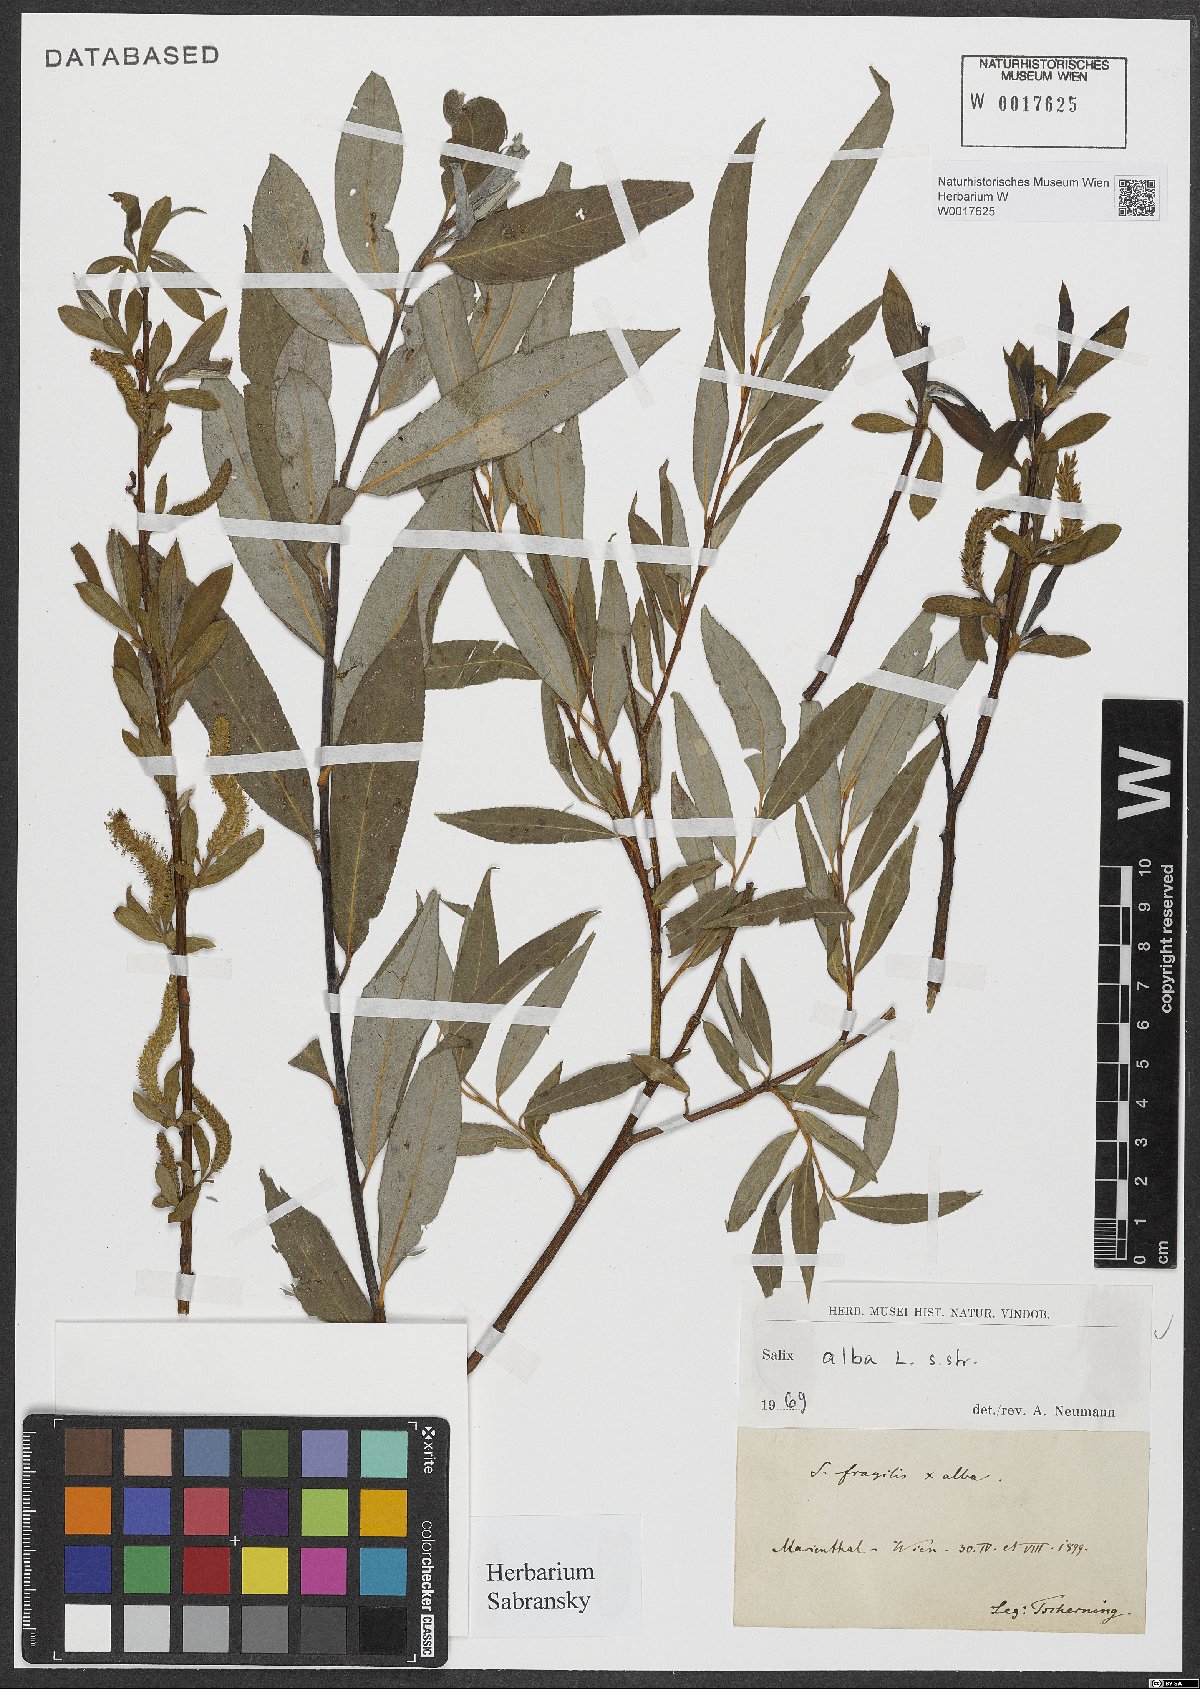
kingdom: Plantae
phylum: Tracheophyta
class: Magnoliopsida
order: Malpighiales
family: Salicaceae
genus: Salix
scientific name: Salix alba
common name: White willow
